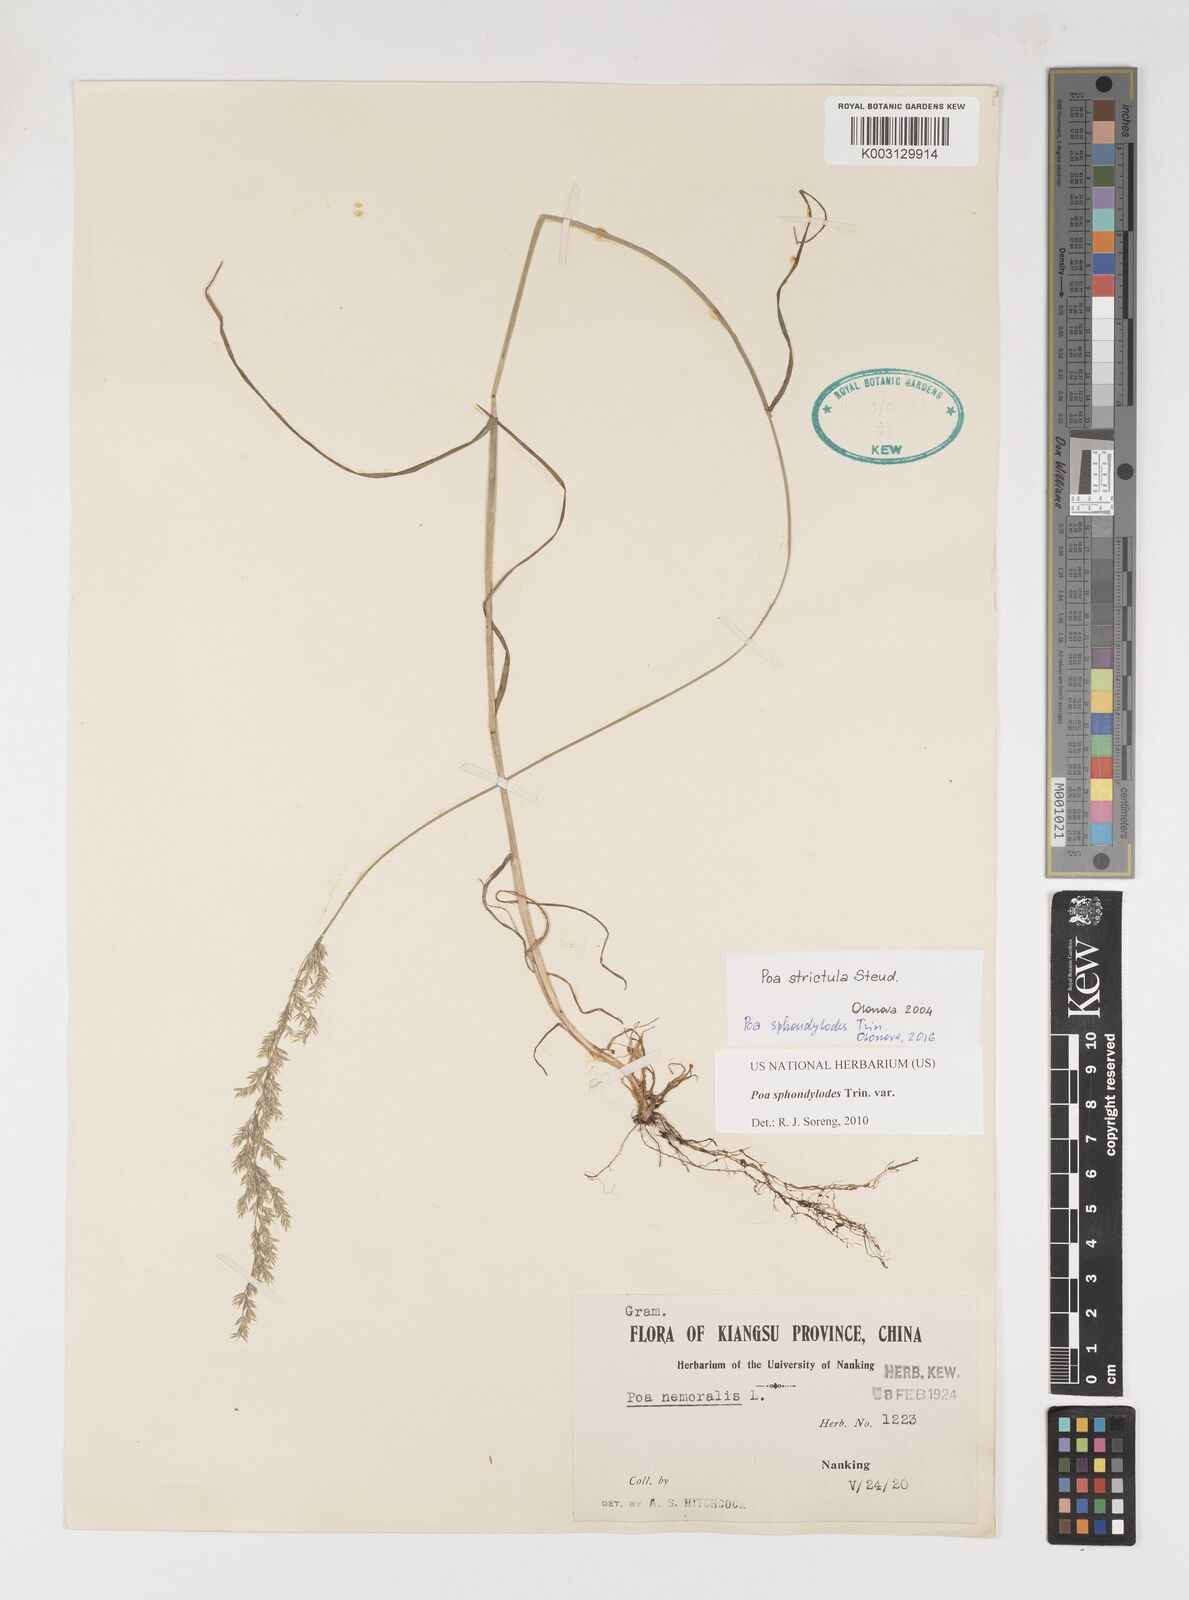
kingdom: Plantae
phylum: Tracheophyta
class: Liliopsida
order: Poales
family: Poaceae
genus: Poa
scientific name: Poa sphondylodes
